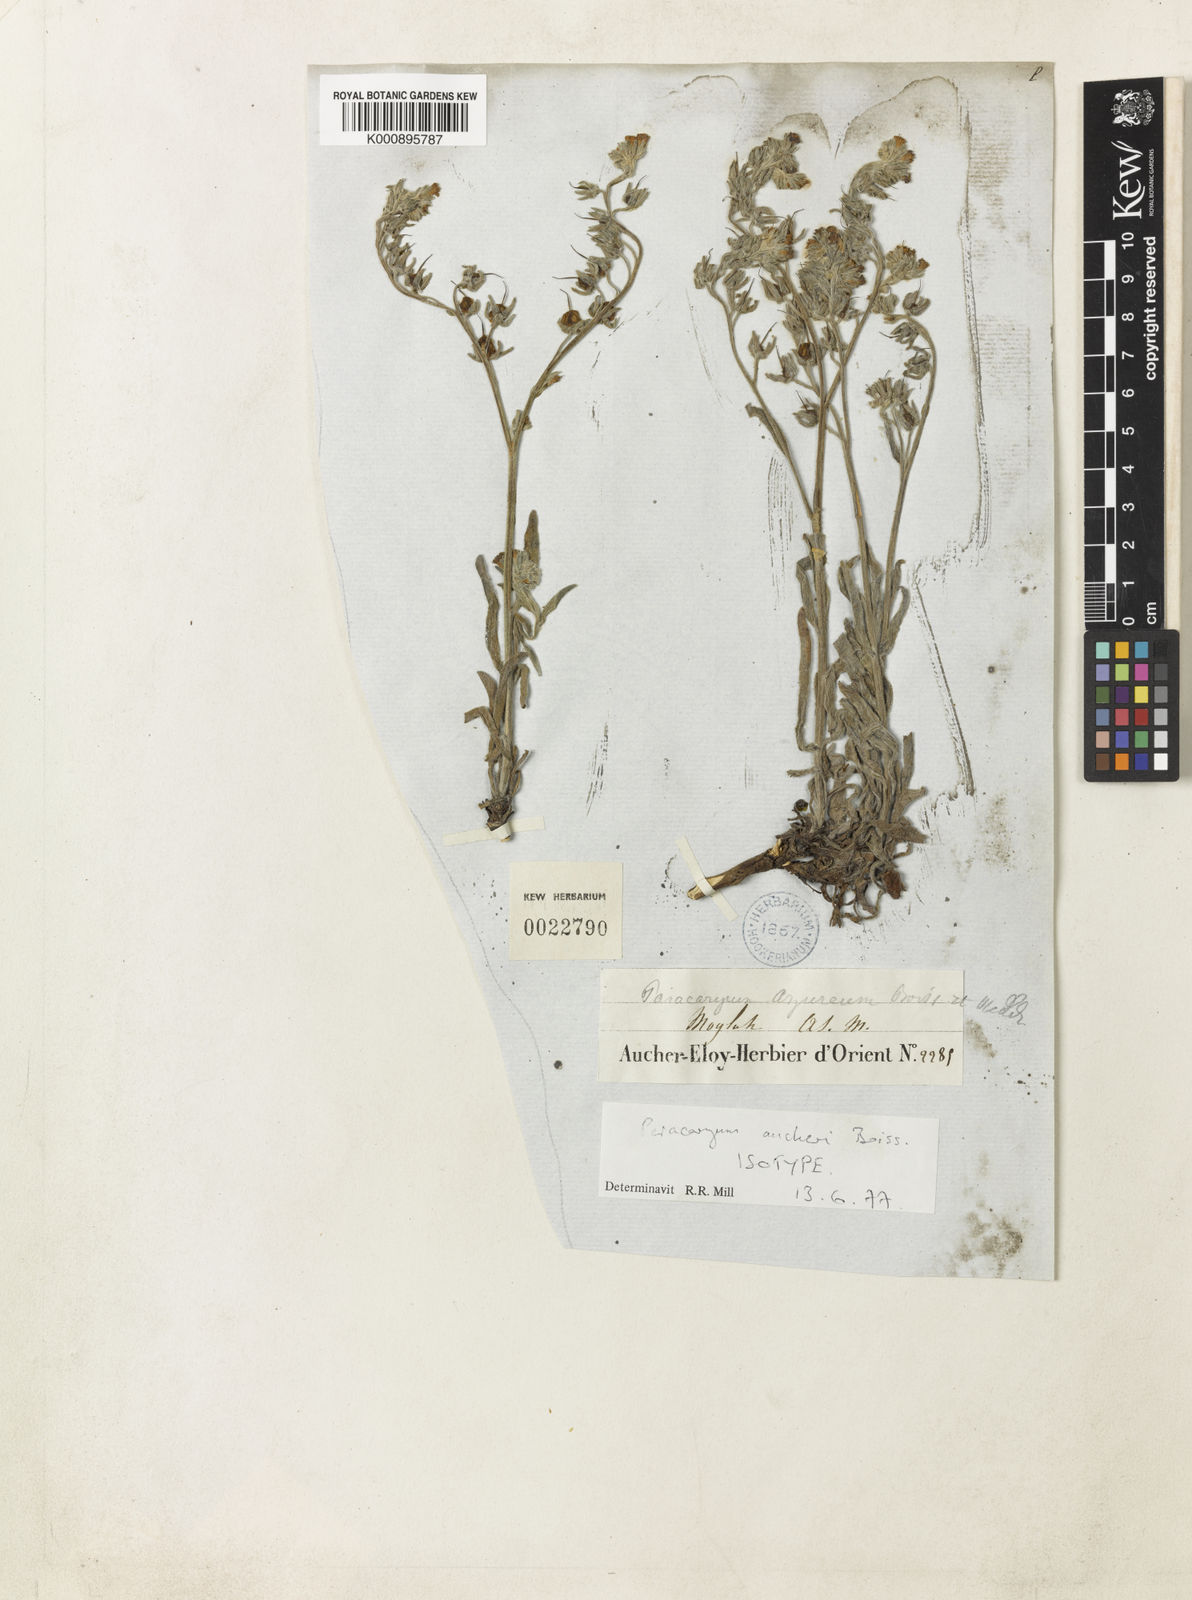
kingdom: Plantae
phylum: Tracheophyta
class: Magnoliopsida
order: Boraginales
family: Boraginaceae
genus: Paracaryum
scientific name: Paracaryum aucheri
